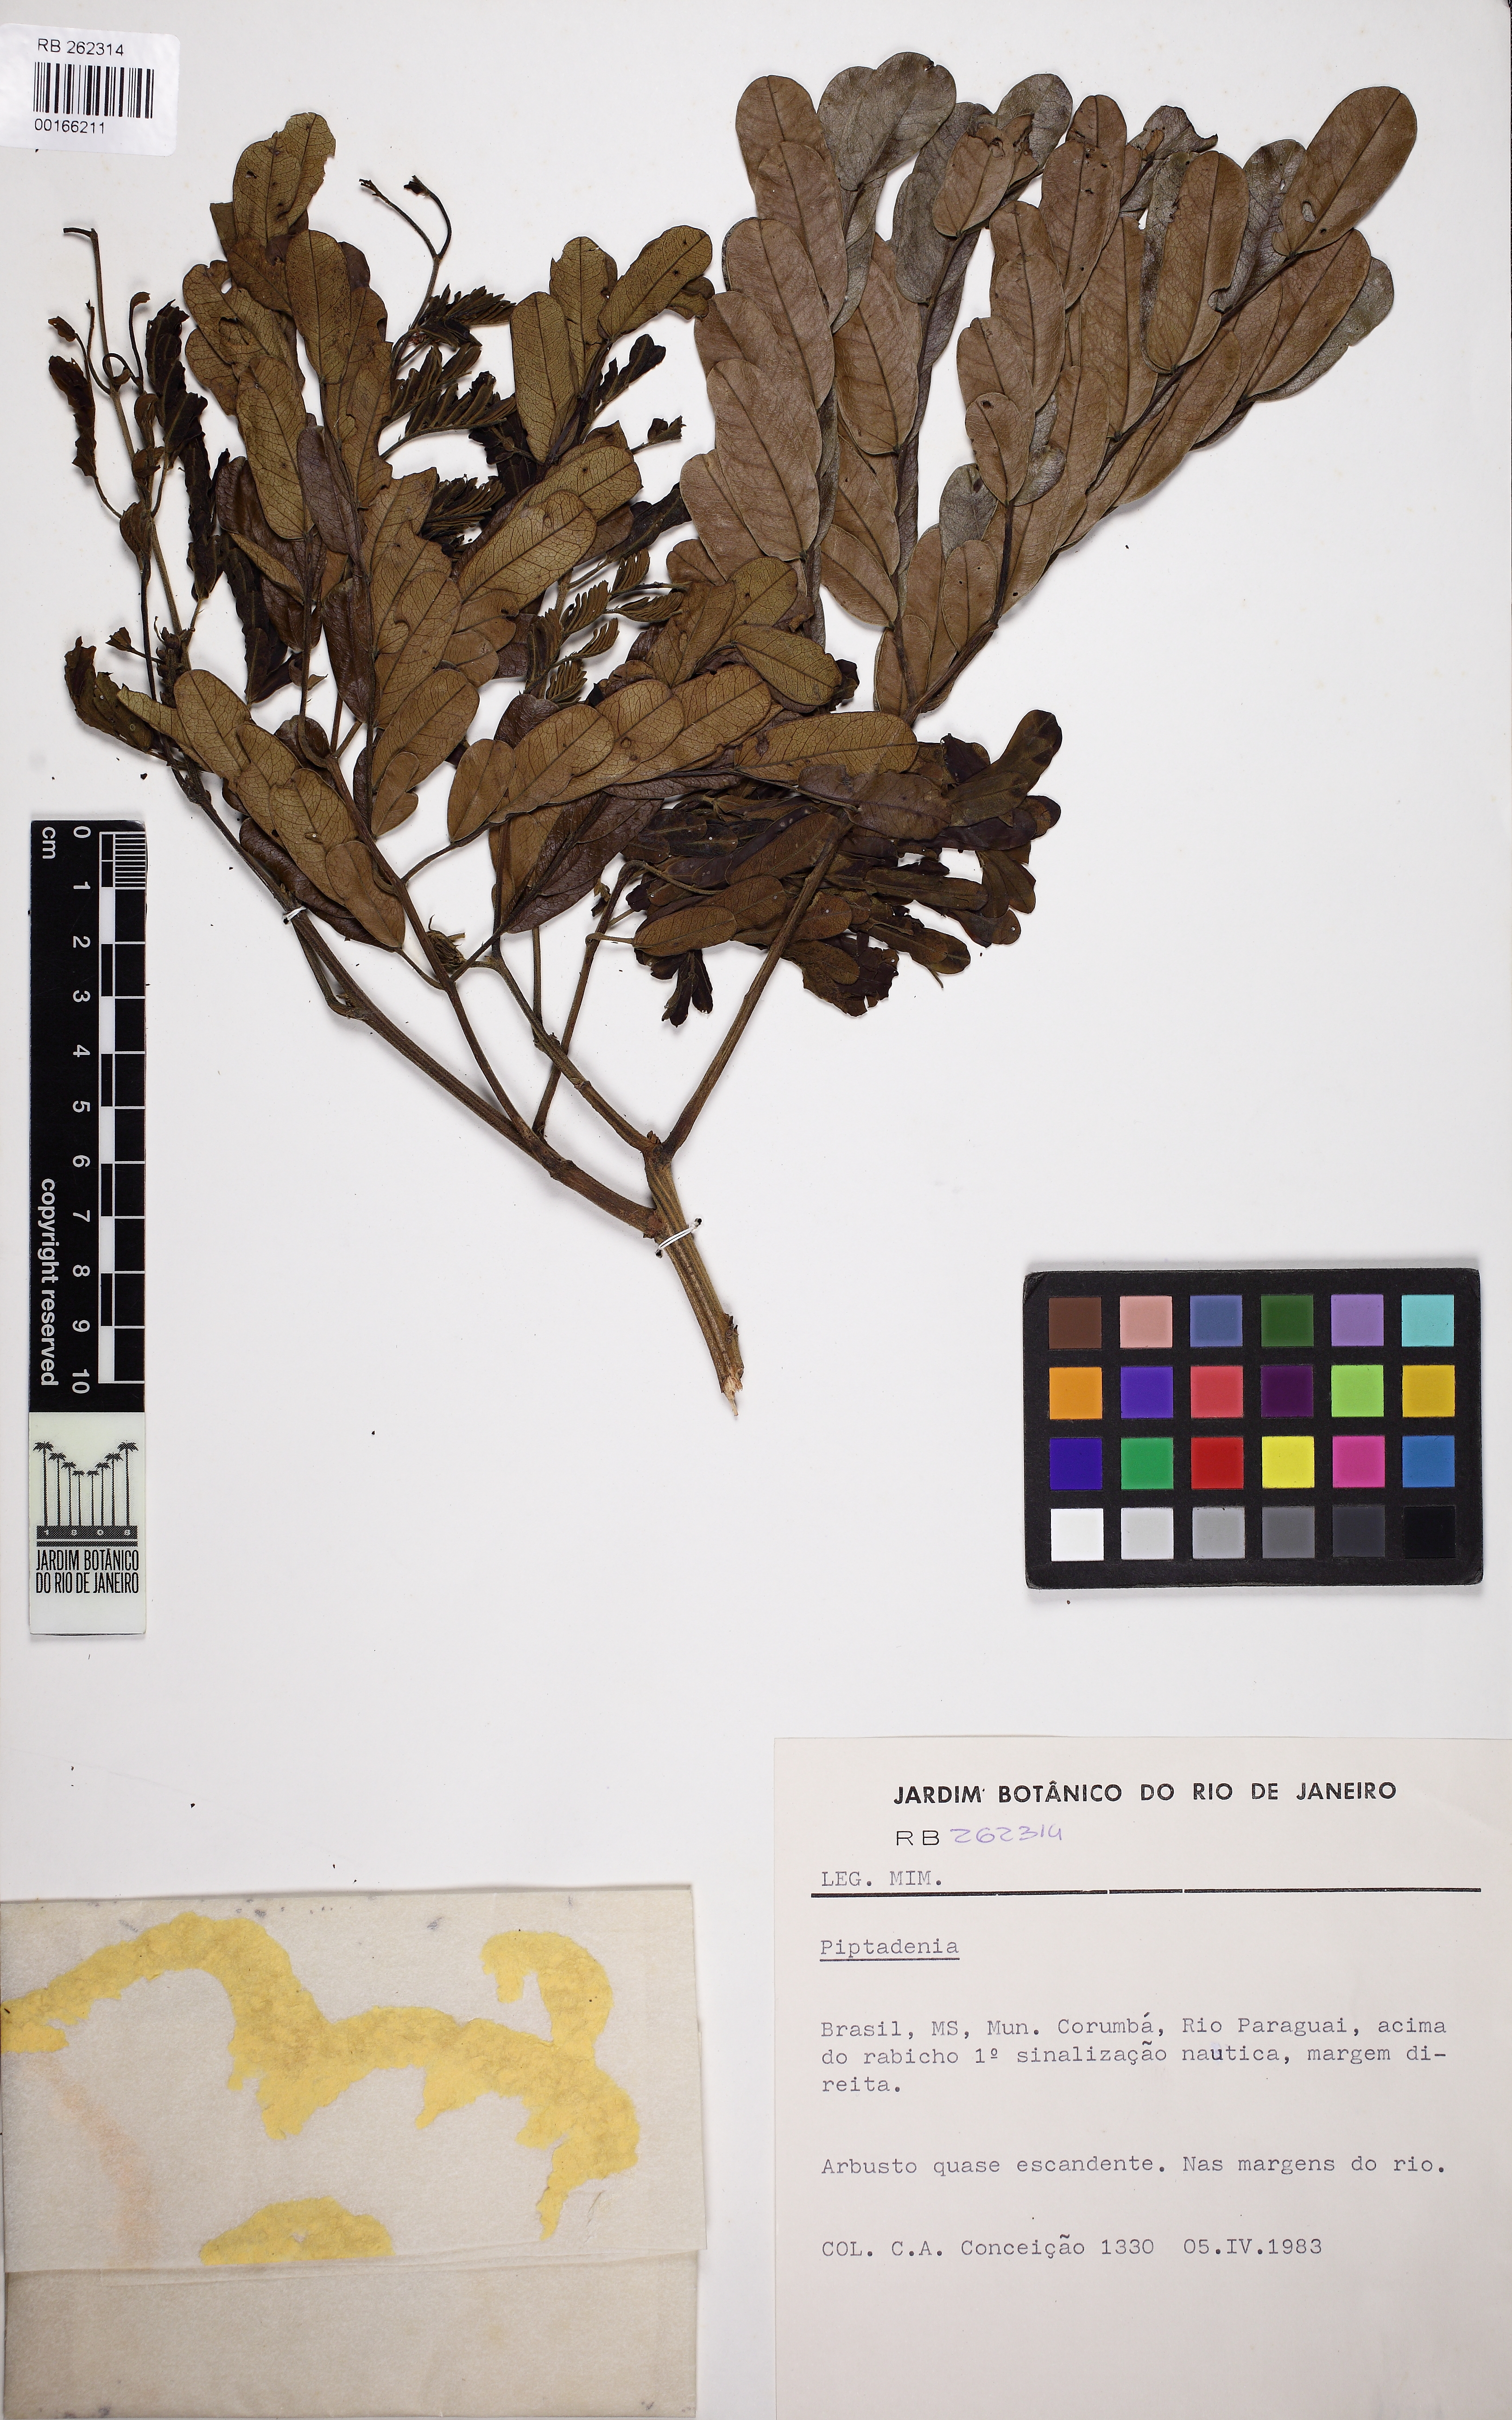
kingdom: Plantae
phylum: Tracheophyta
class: Magnoliopsida
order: Fabales
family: Fabaceae
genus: Pseudopiptadenia
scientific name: Pseudopiptadenia
